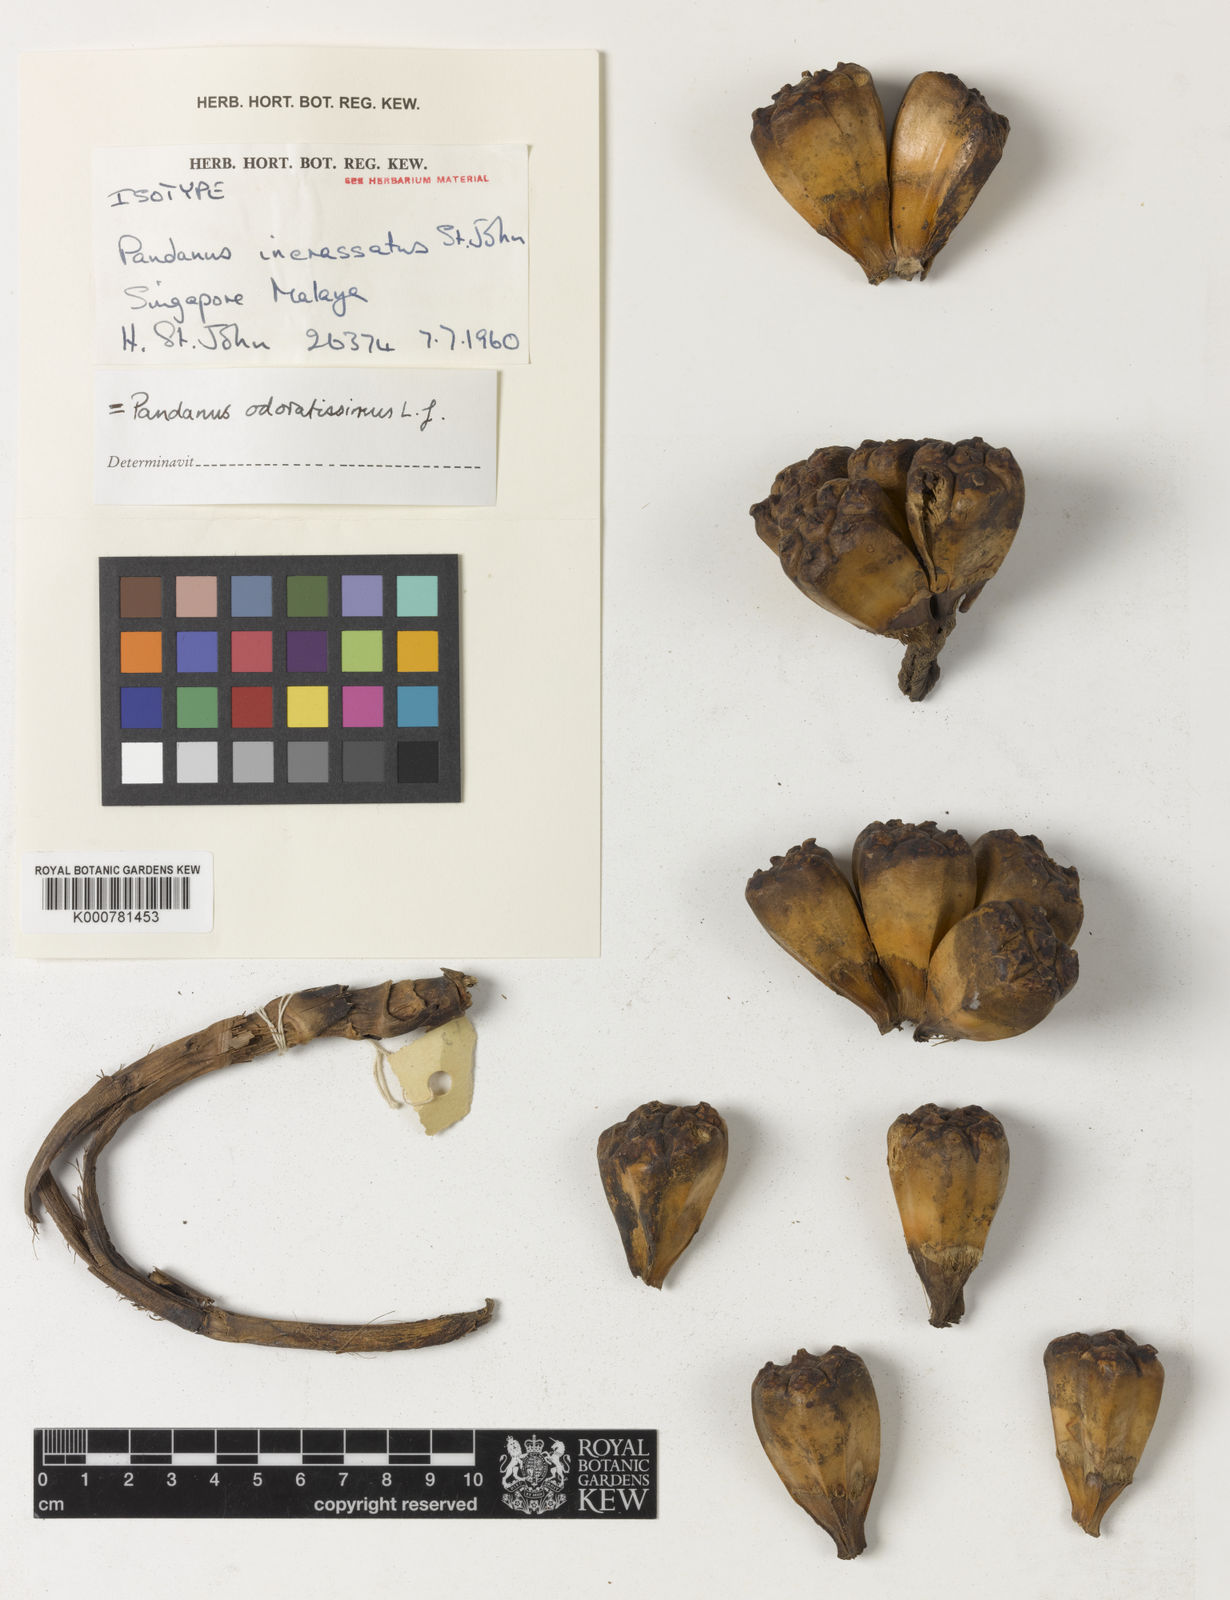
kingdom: Plantae
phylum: Tracheophyta
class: Liliopsida
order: Pandanales
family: Pandanaceae
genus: Pandanus
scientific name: Pandanus odorifer
